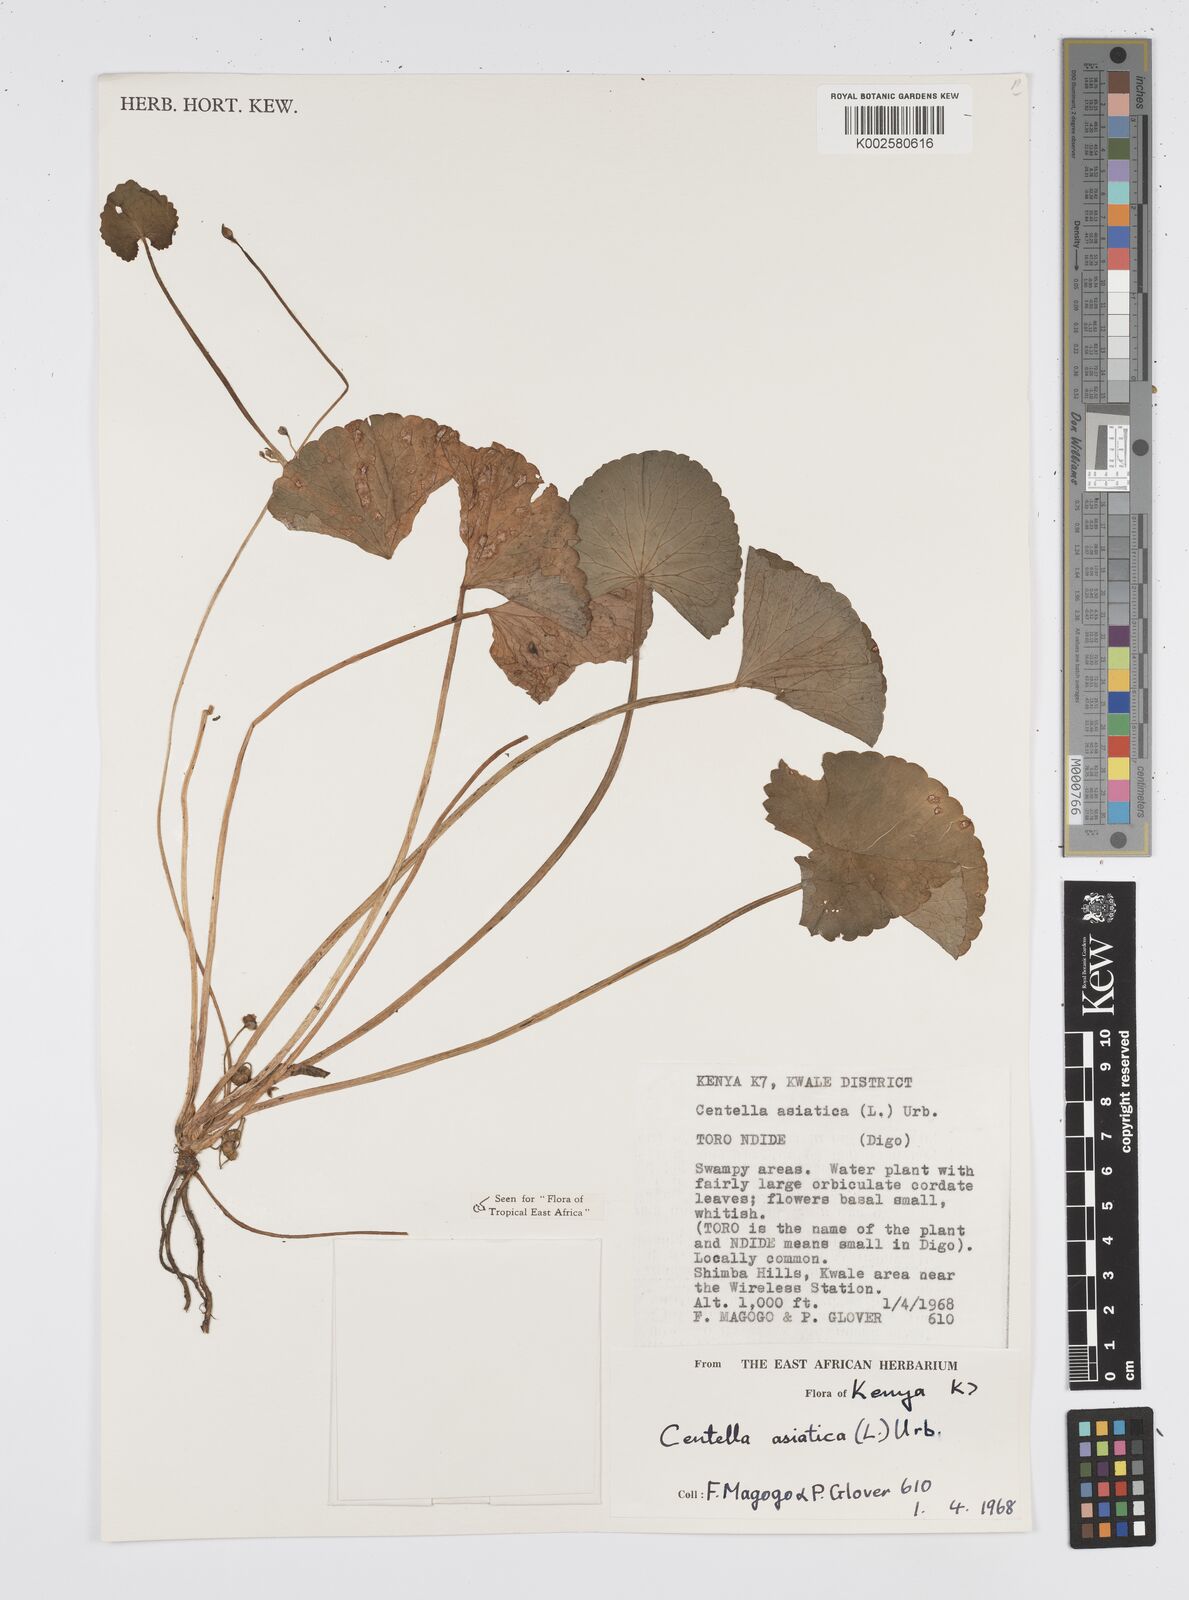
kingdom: Plantae
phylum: Tracheophyta
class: Magnoliopsida
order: Apiales
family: Apiaceae
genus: Centella
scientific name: Centella asiatica
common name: Spadeleaf
